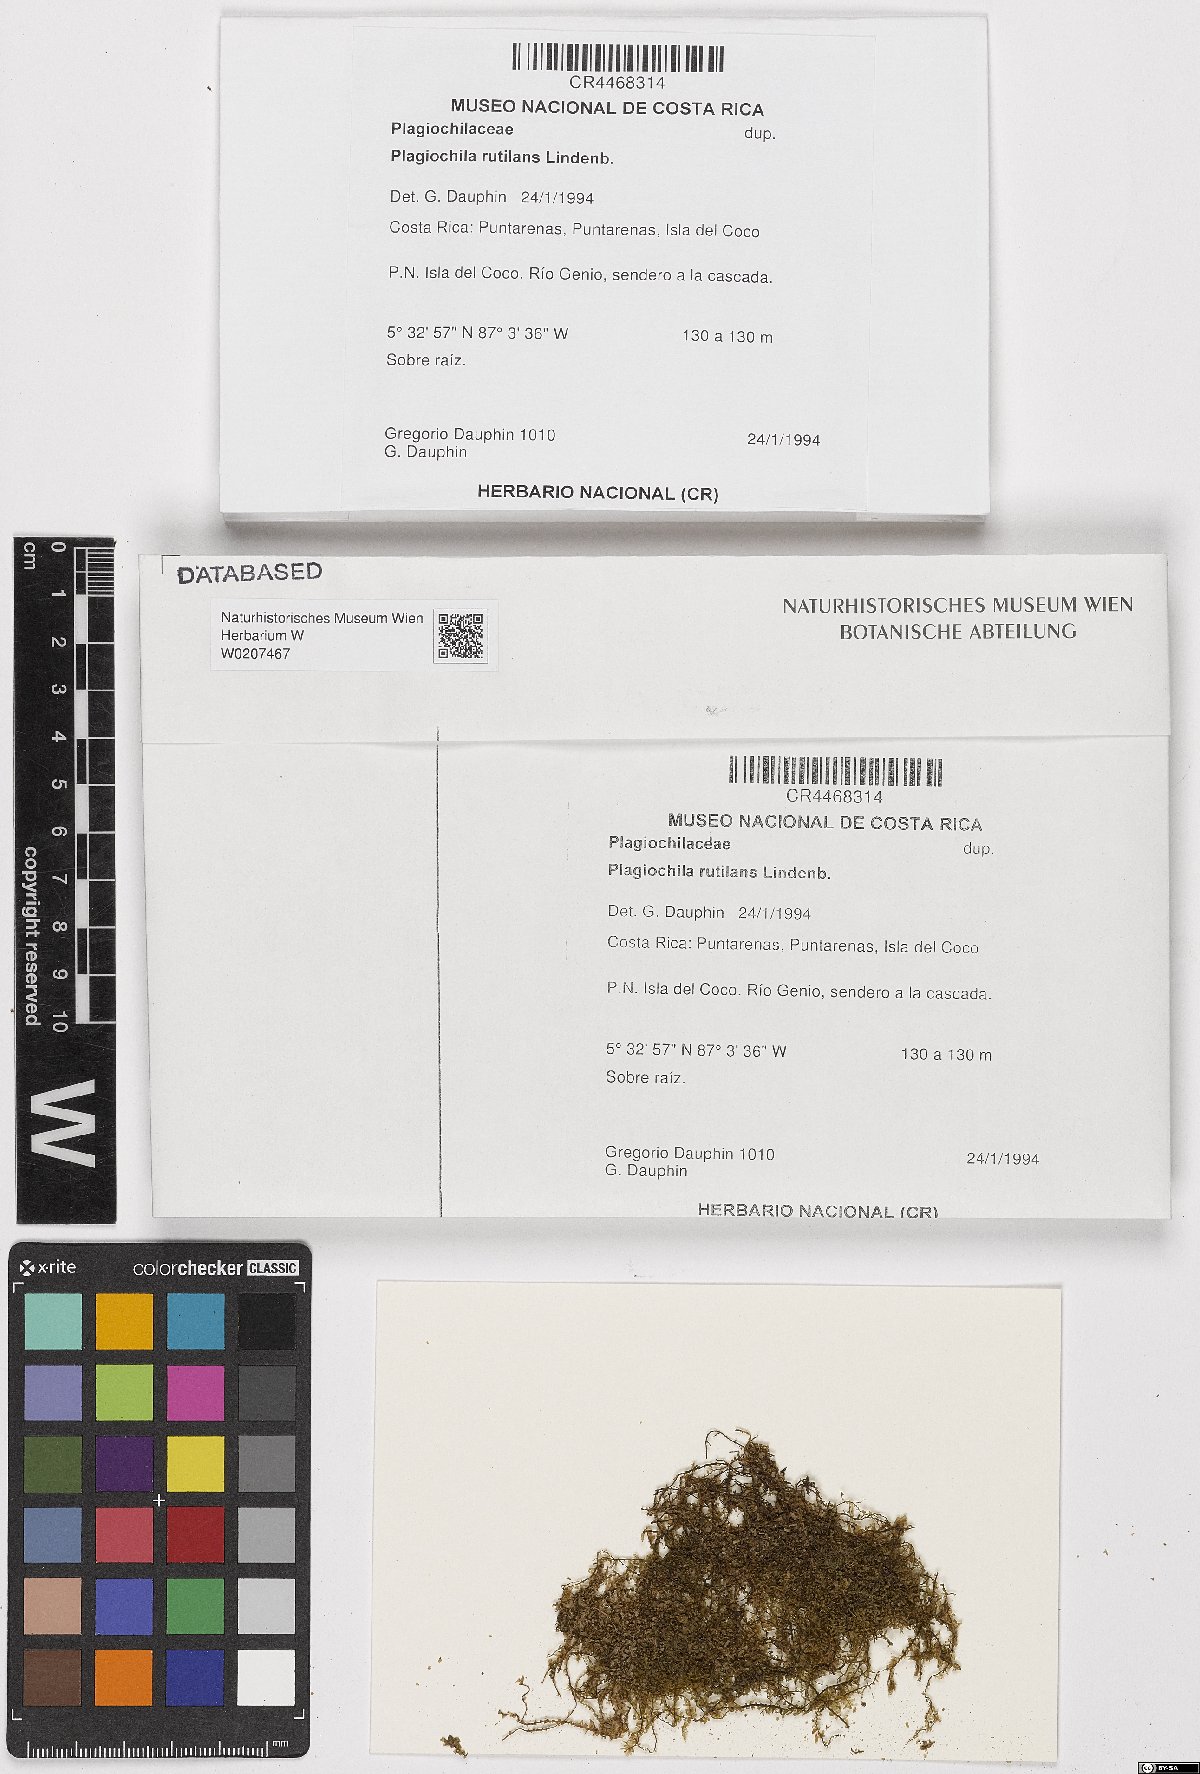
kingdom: Plantae
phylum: Marchantiophyta
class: Jungermanniopsida
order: Jungermanniales
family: Plagiochilaceae
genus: Plagiochila
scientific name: Plagiochila rutilans
